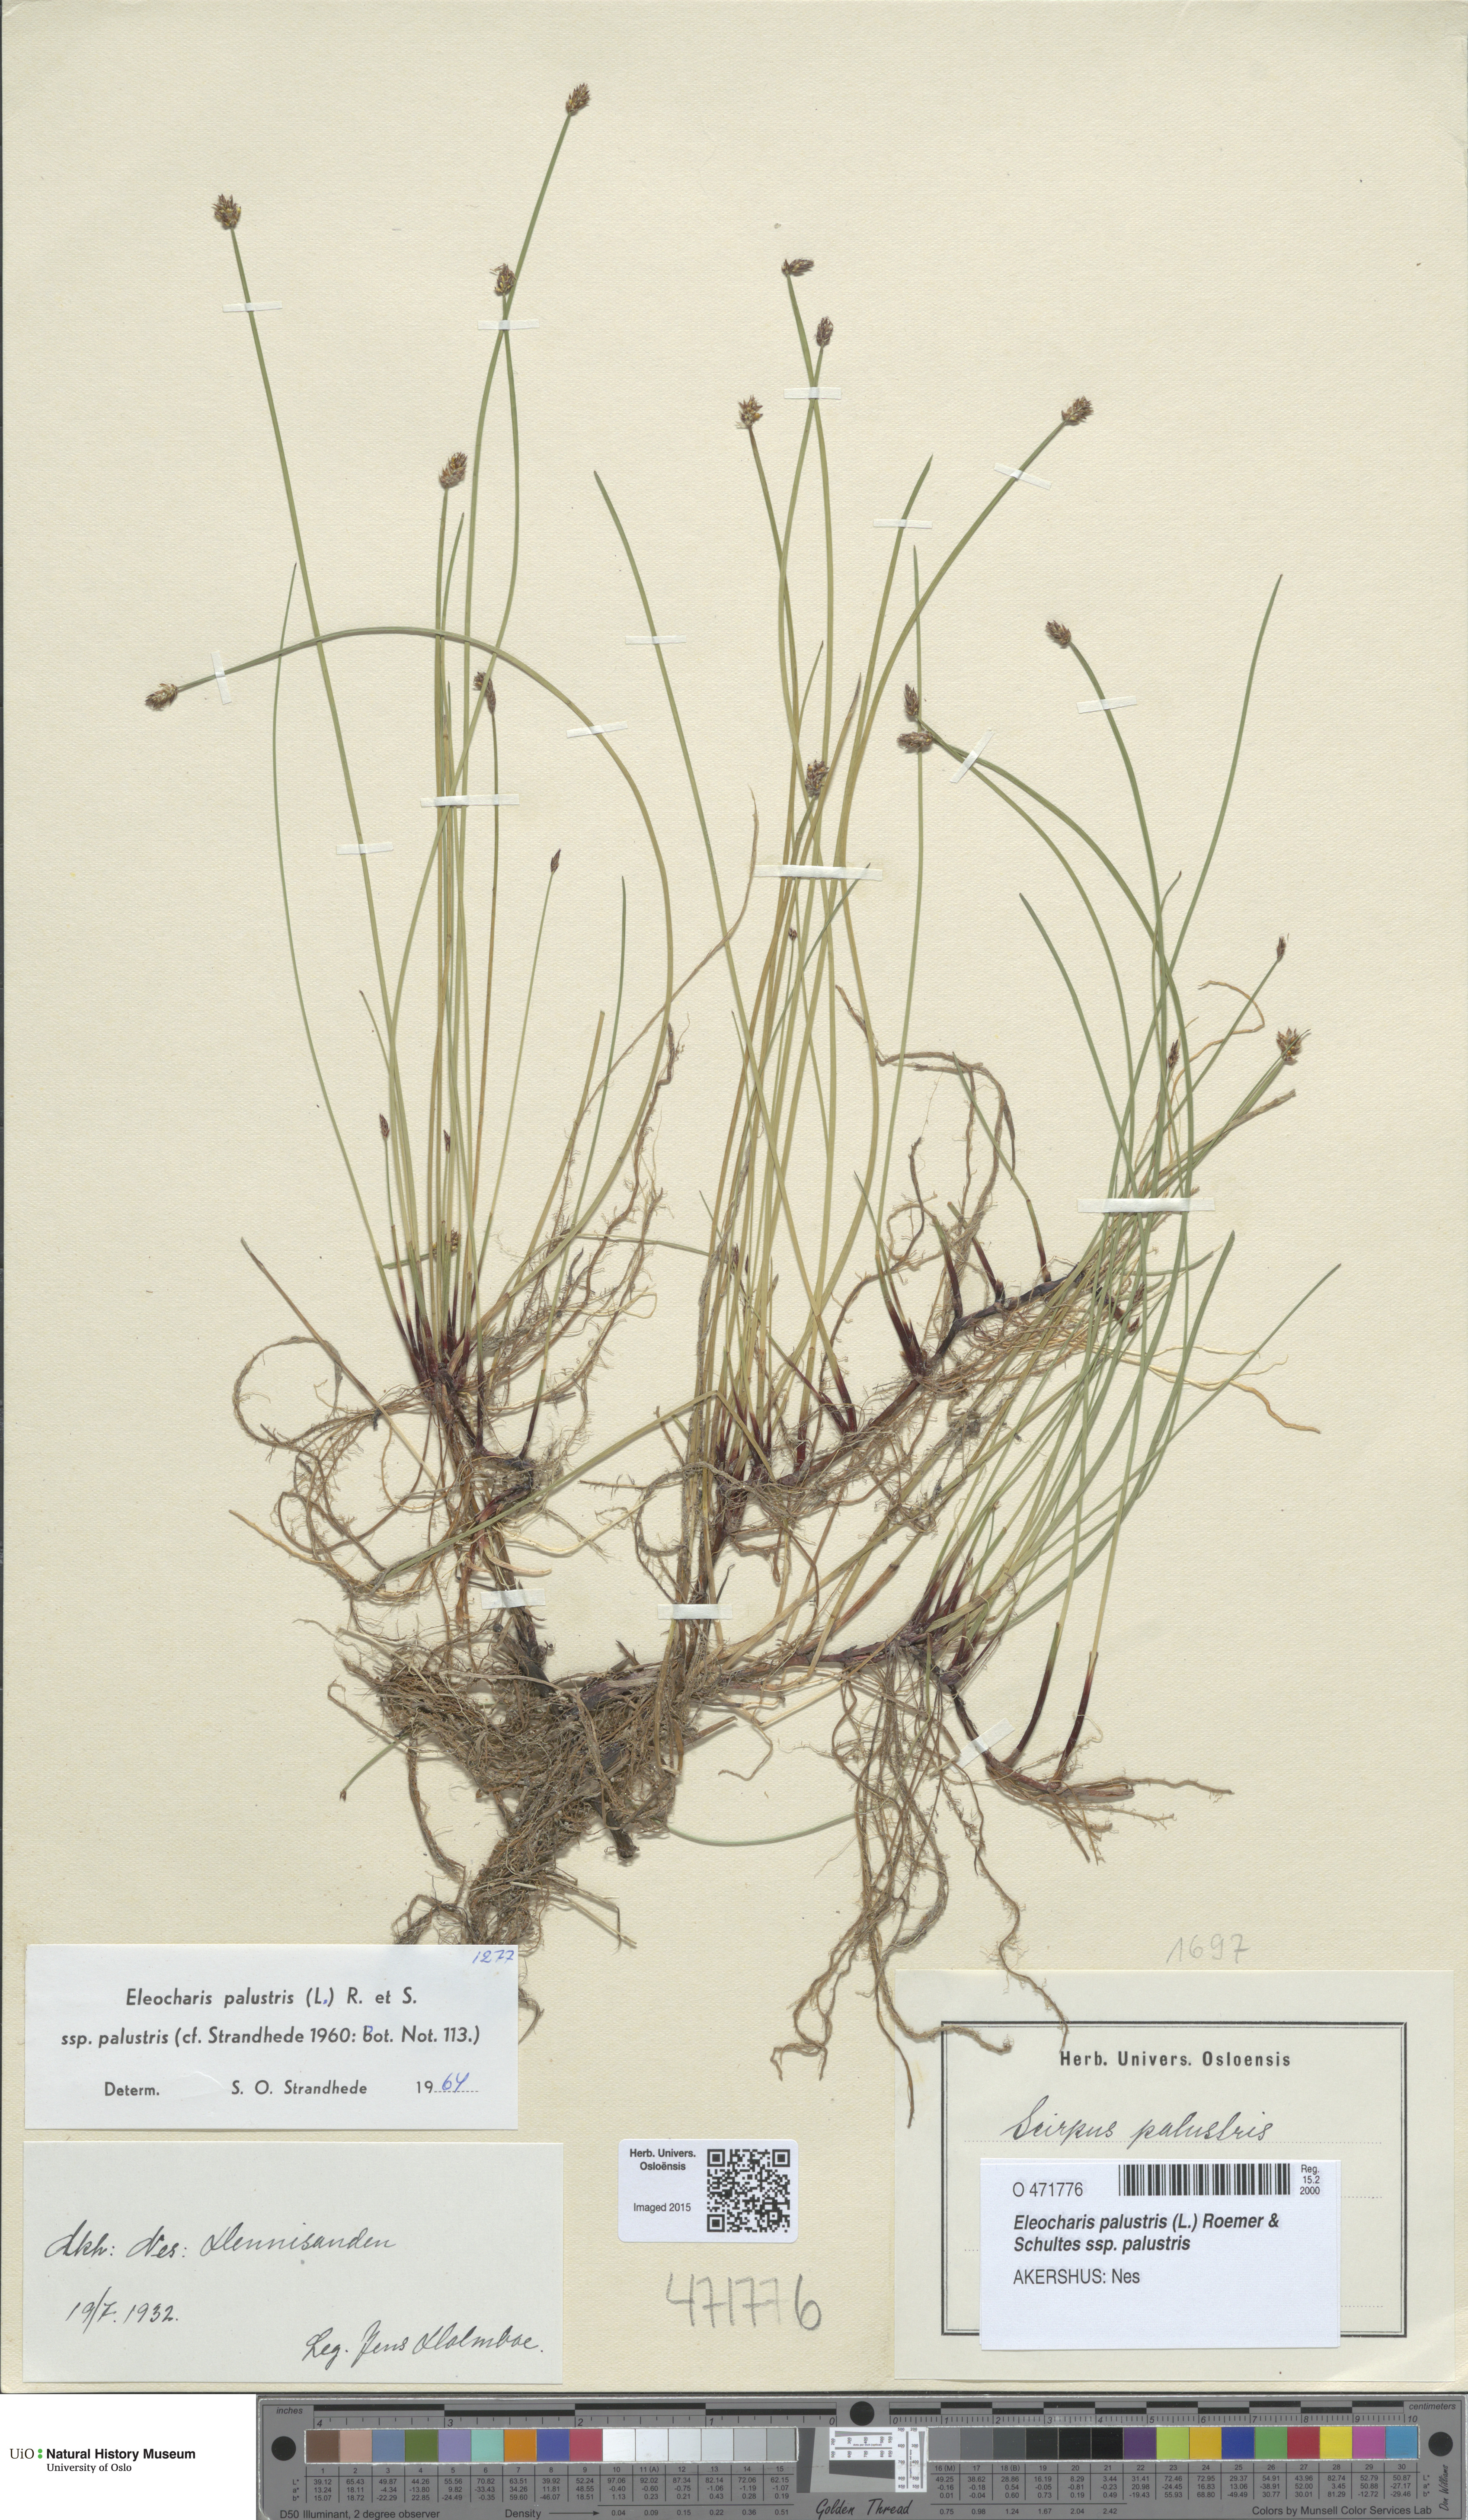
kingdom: Plantae
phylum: Tracheophyta
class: Liliopsida
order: Poales
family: Cyperaceae
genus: Eleocharis
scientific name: Eleocharis palustris
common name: Common spike-rush
